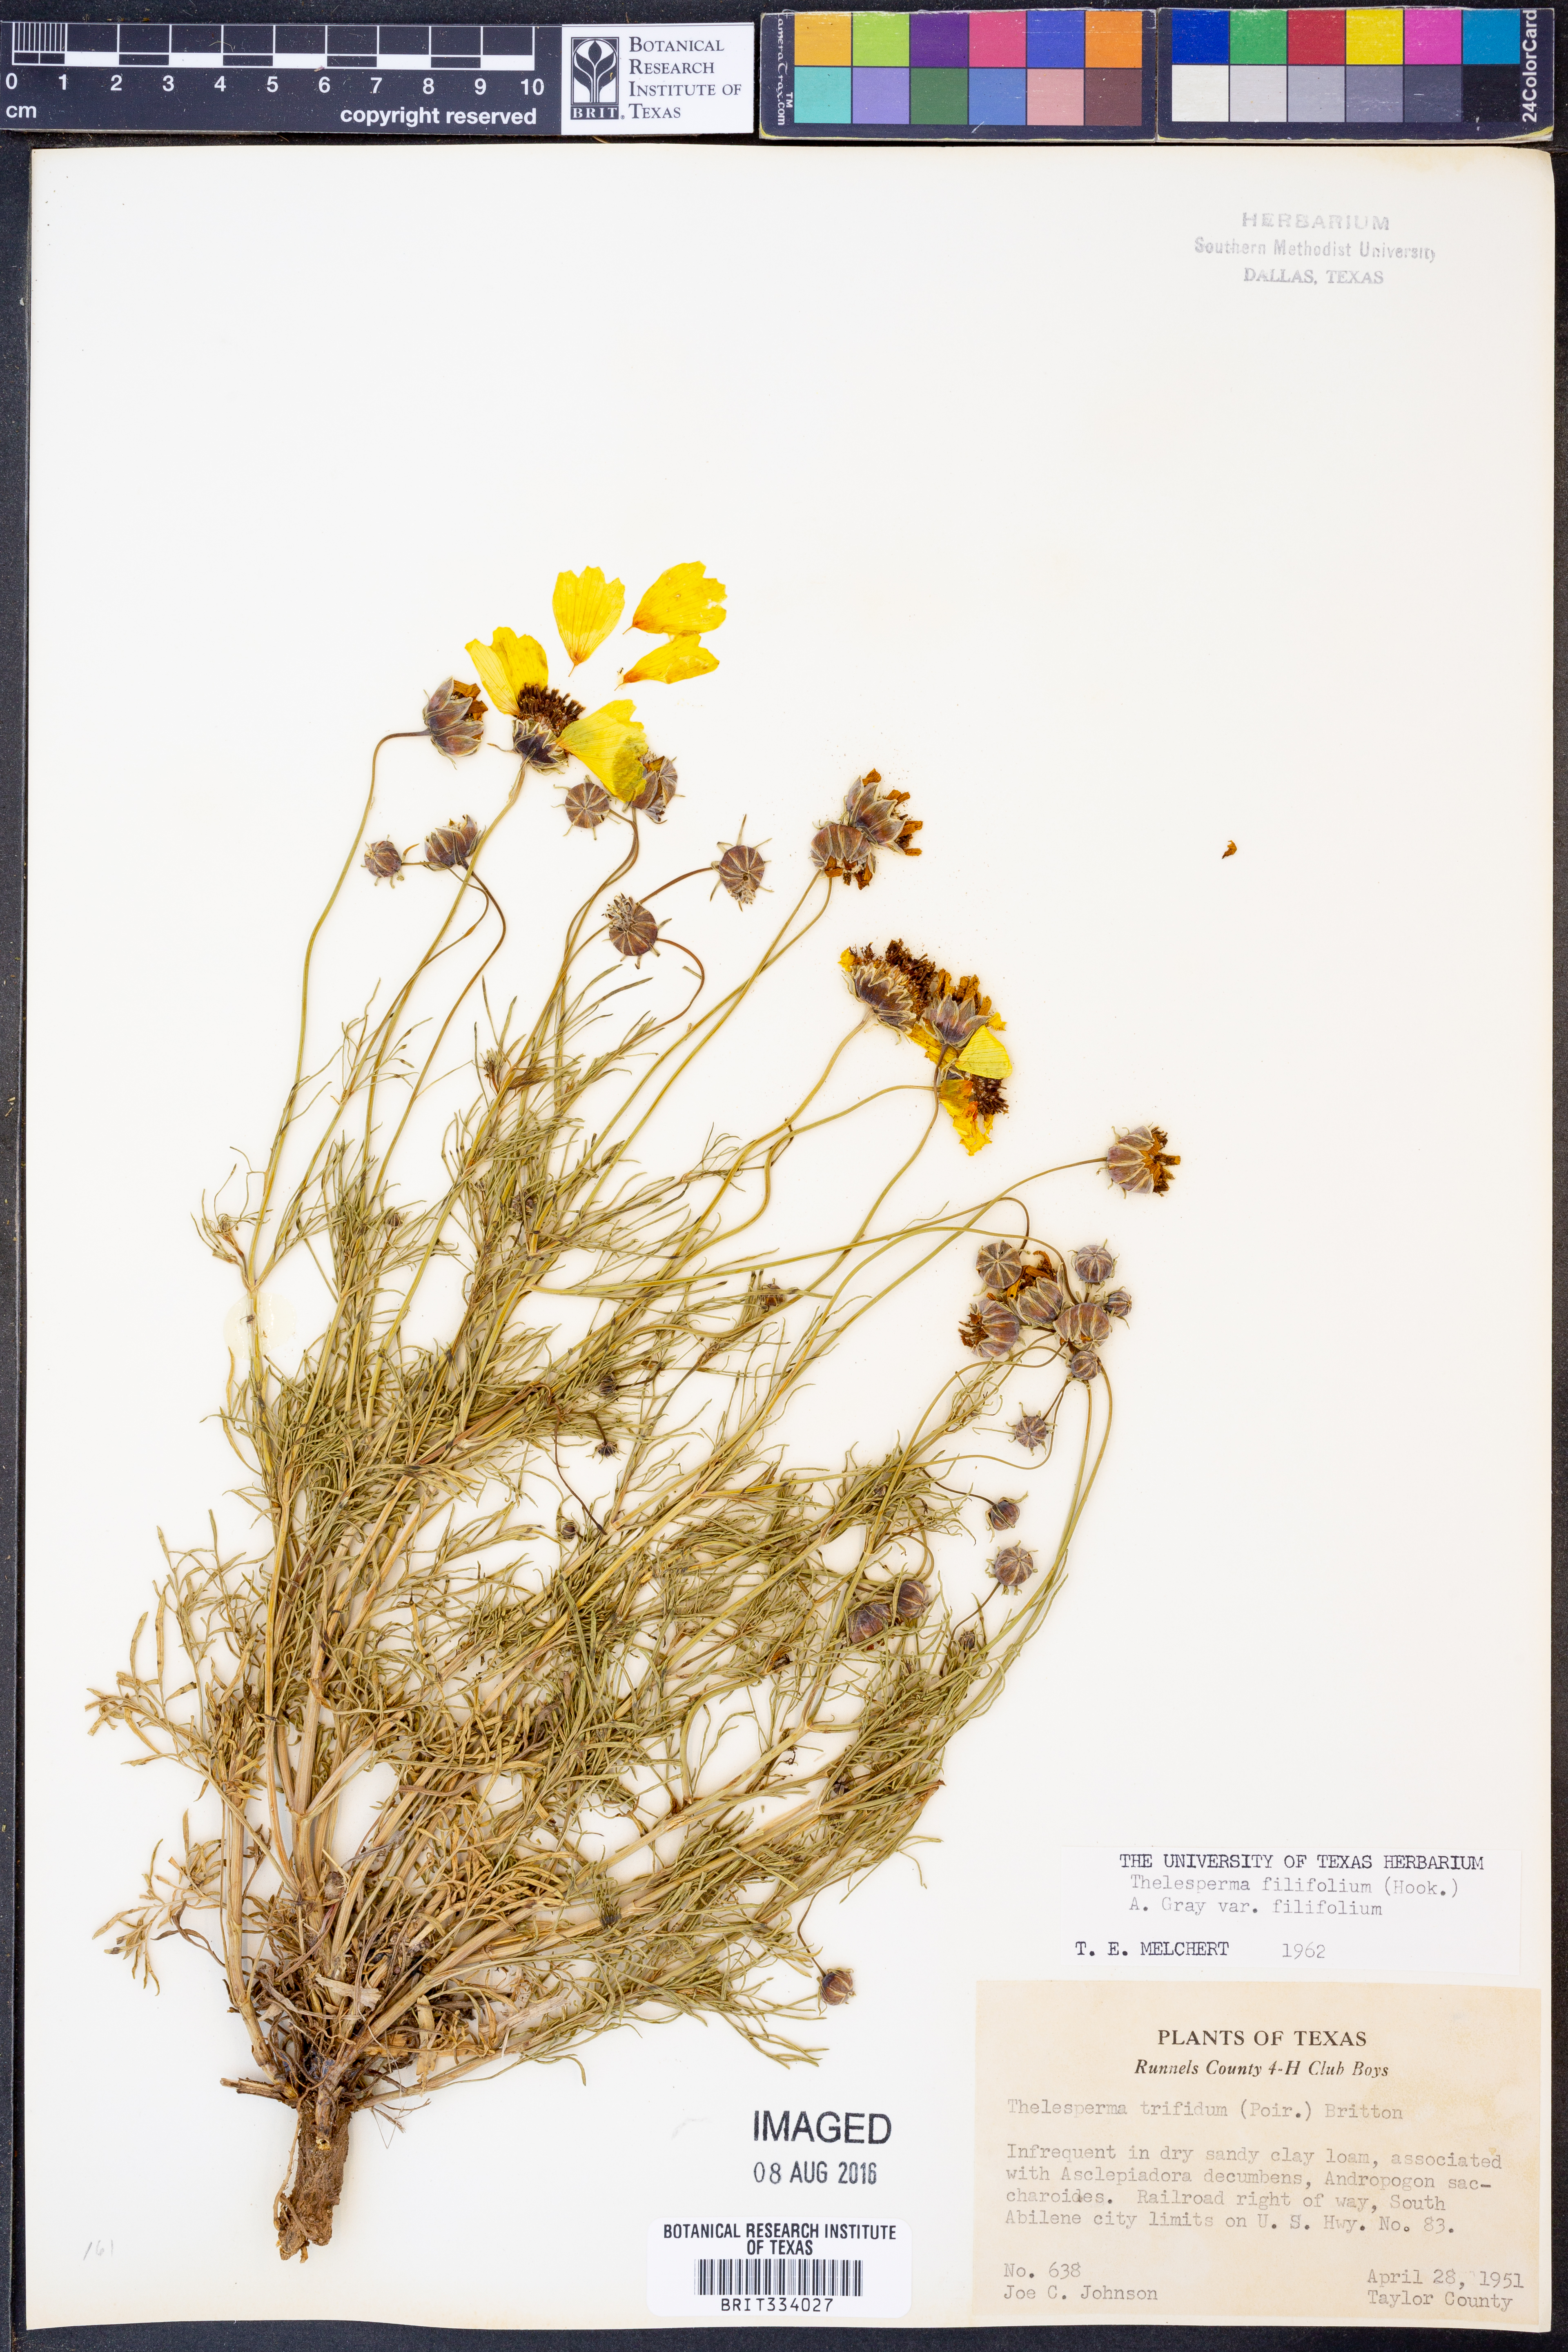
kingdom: Plantae
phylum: Tracheophyta
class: Magnoliopsida
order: Asterales
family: Asteraceae
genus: Thelesperma
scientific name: Thelesperma filifolium
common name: Stiff greenthread
